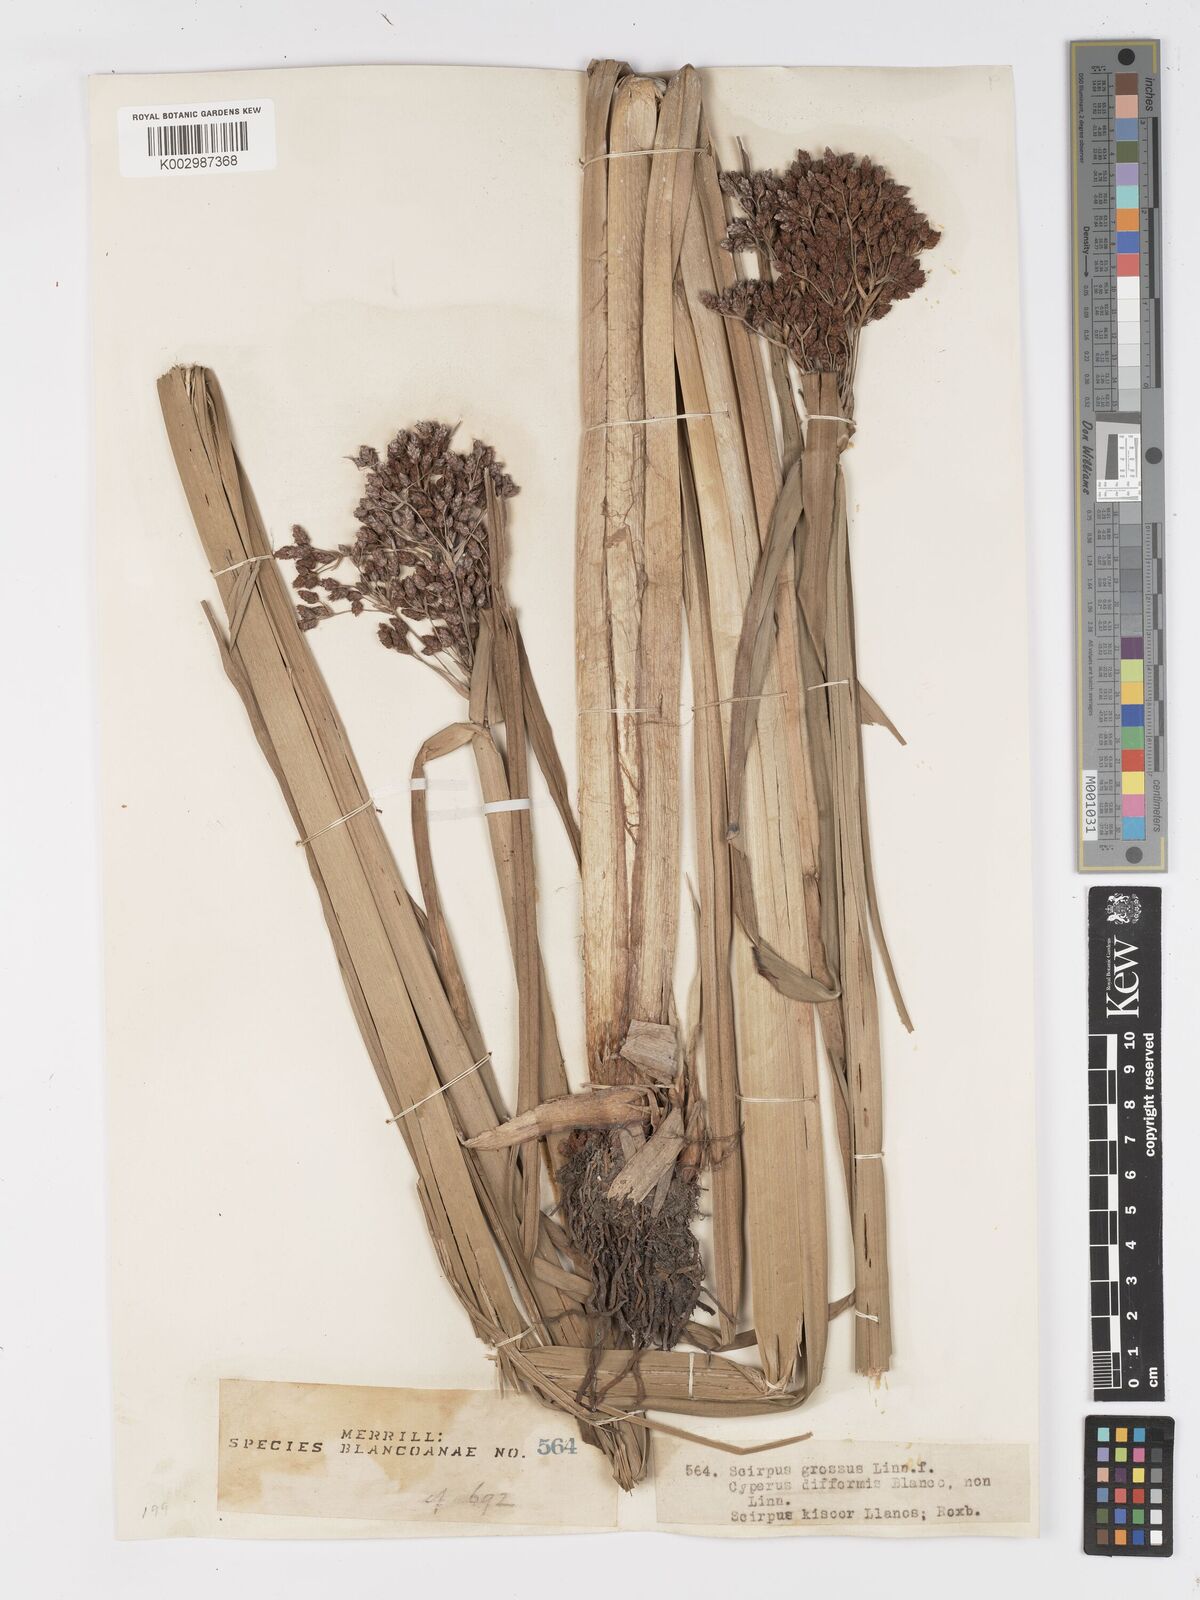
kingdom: Plantae
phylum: Tracheophyta
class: Liliopsida
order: Poales
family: Cyperaceae
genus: Actinoscirpus
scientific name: Actinoscirpus grossus
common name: Giant bur rush
